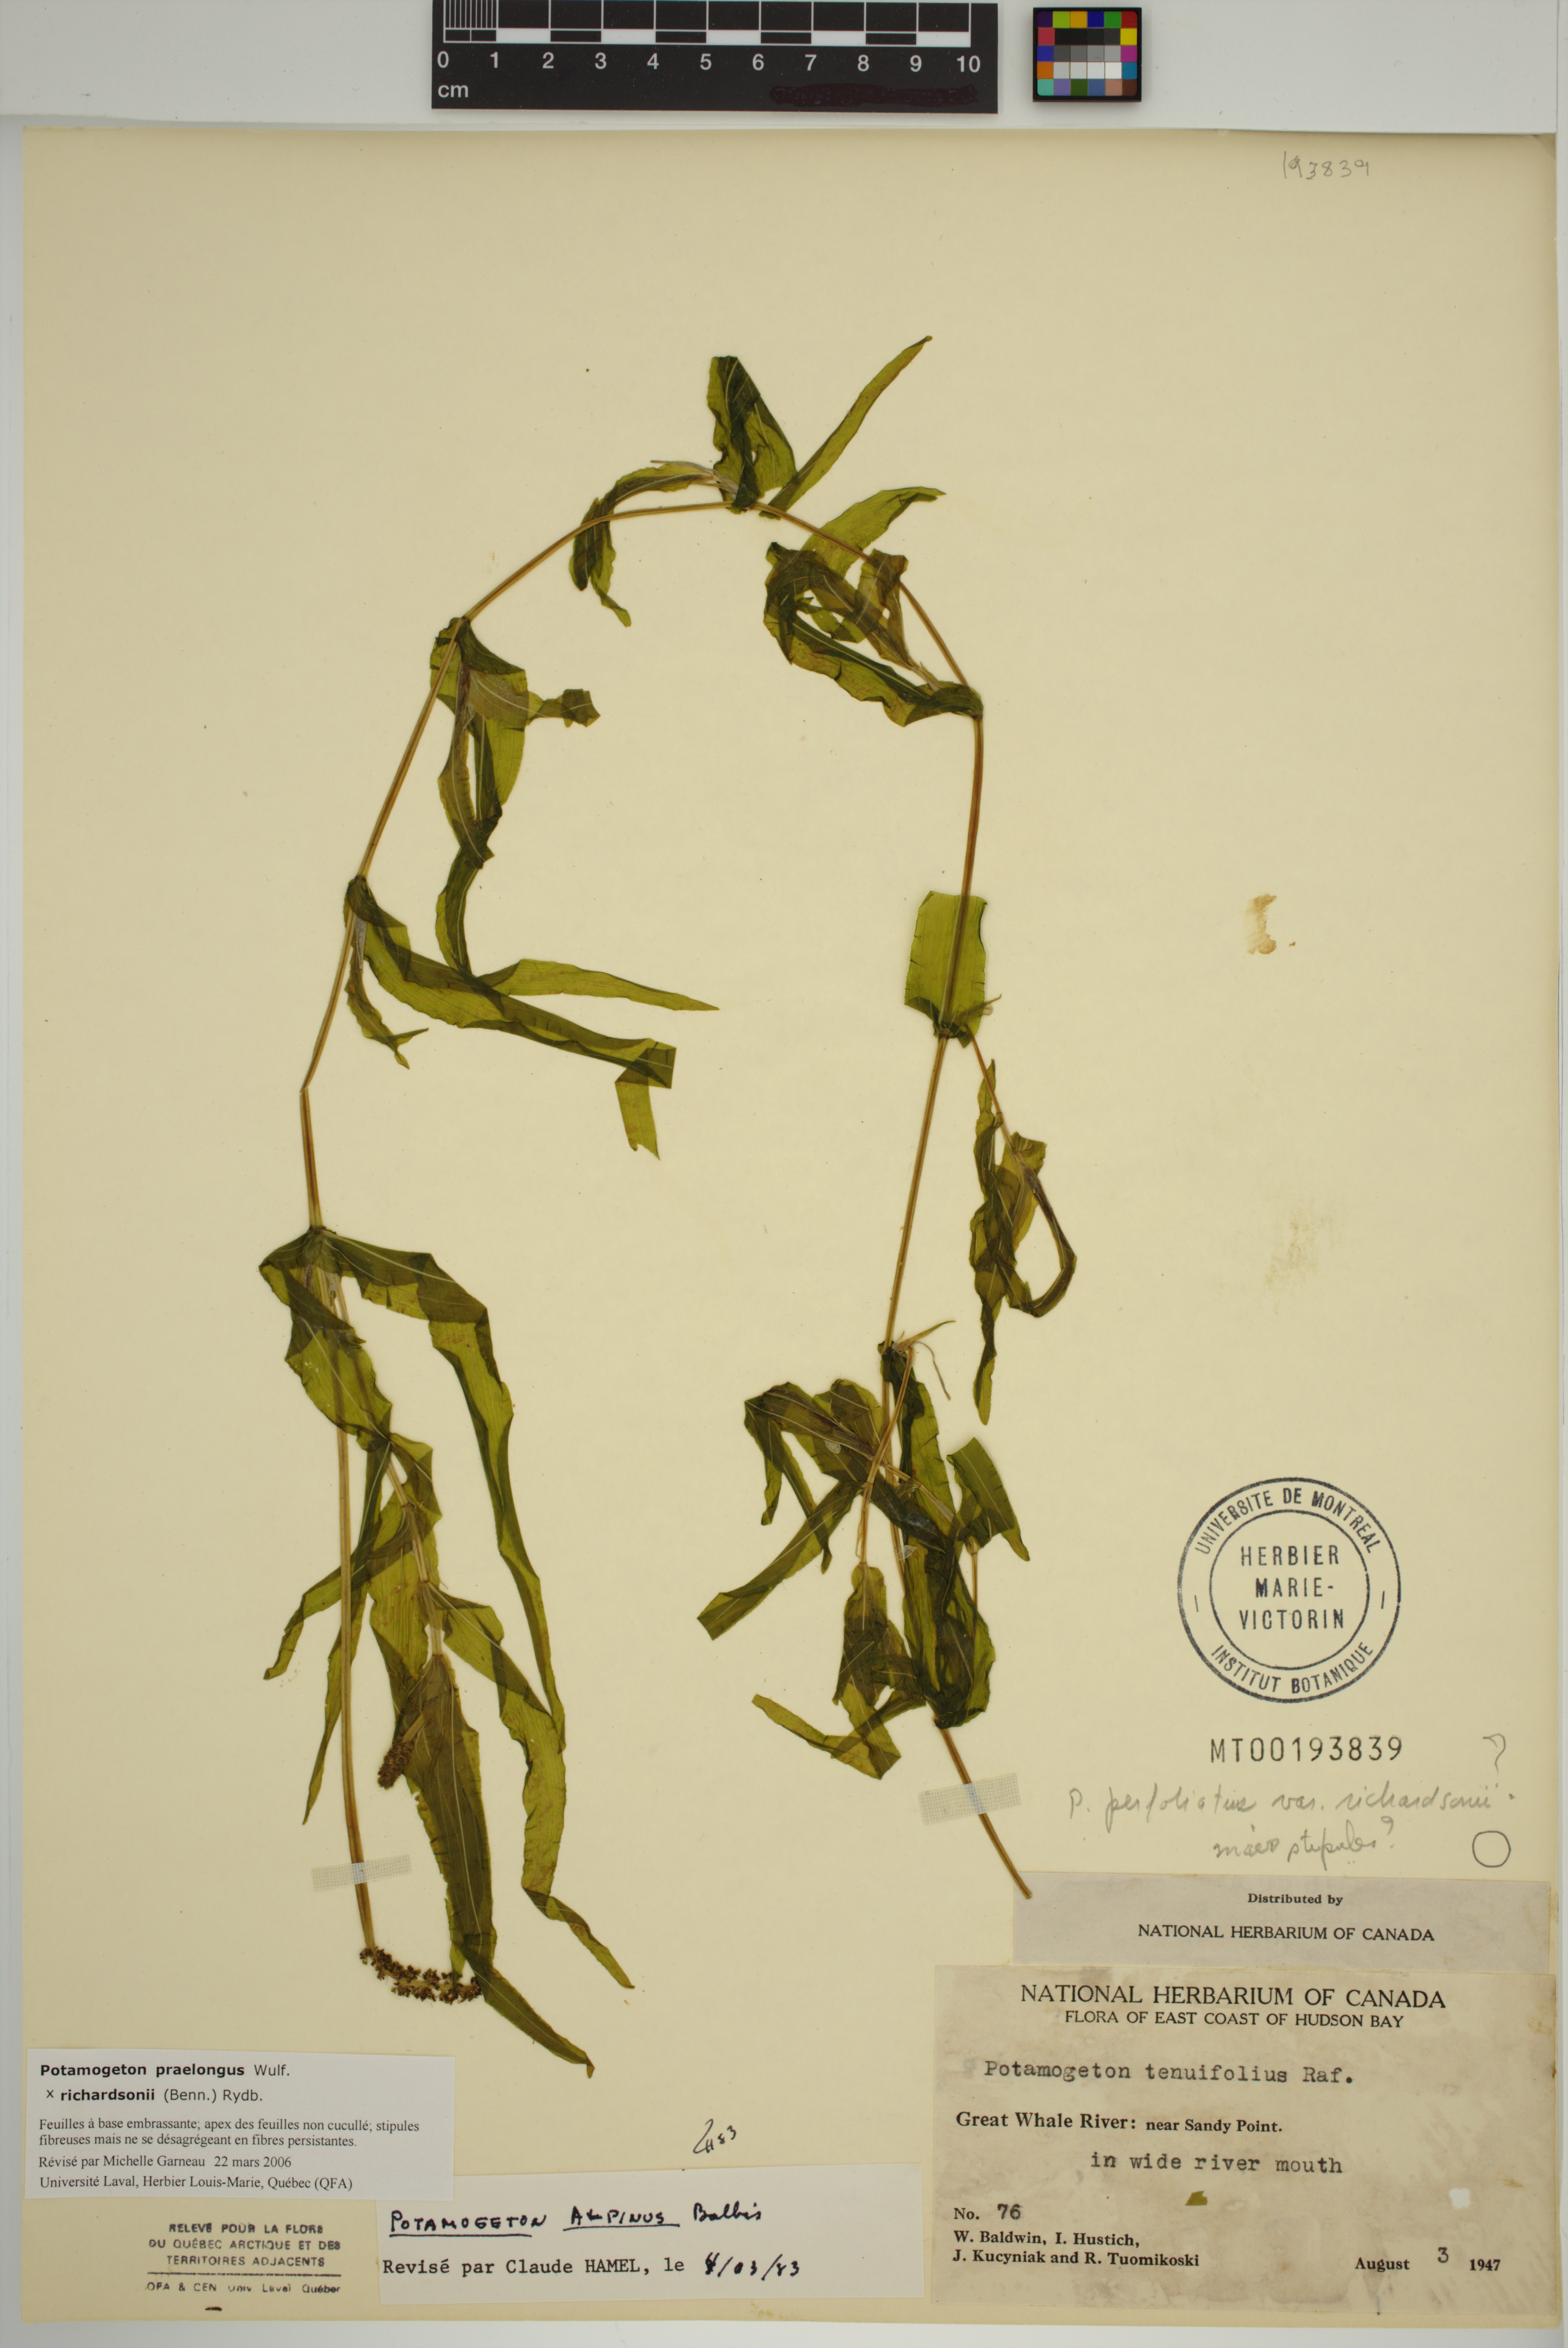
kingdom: Plantae
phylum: Tracheophyta
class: Liliopsida
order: Alismatales
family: Potamogetonaceae
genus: Potamogeton
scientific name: Potamogeton
